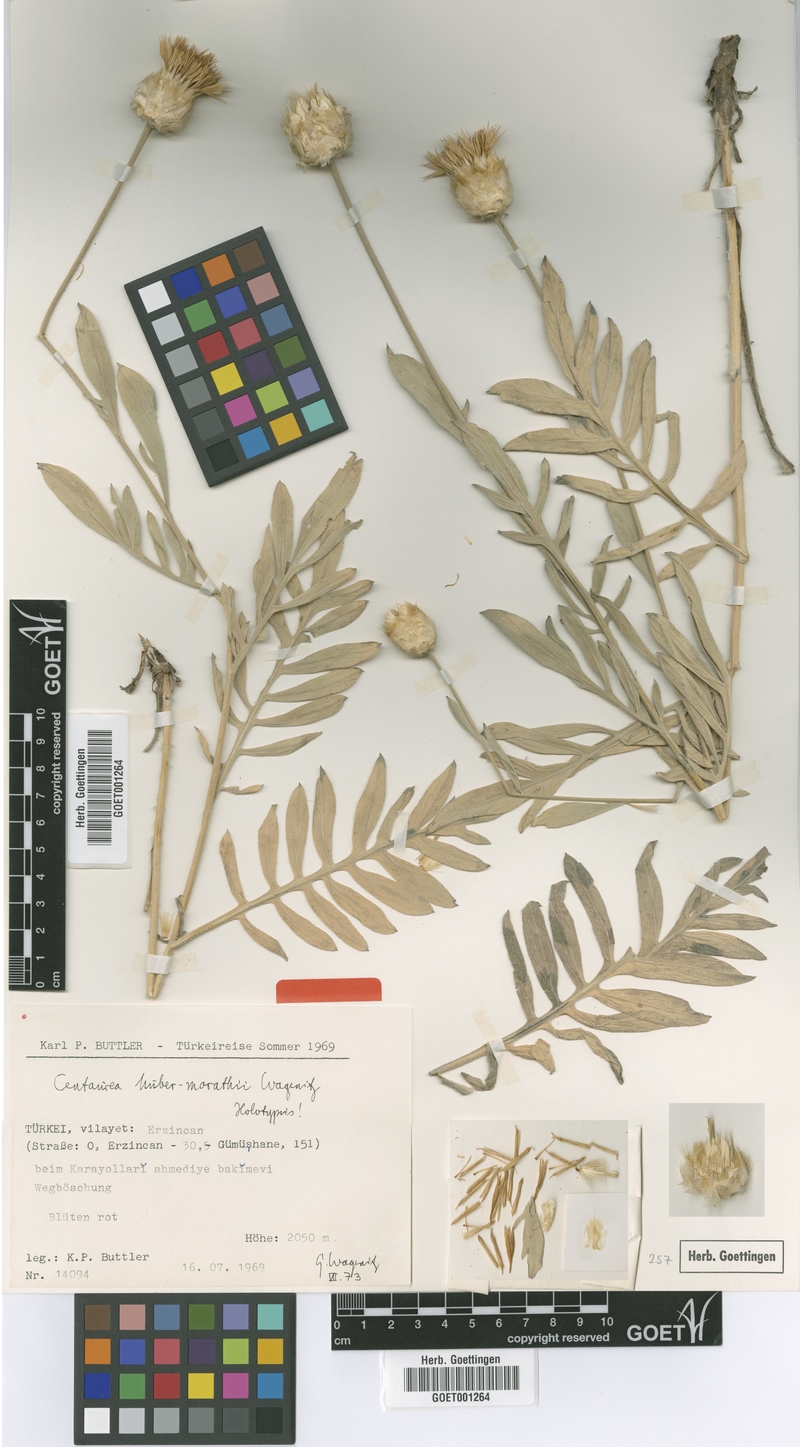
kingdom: Plantae
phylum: Tracheophyta
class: Magnoliopsida
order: Asterales
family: Asteraceae
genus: Psephellus
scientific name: Psephellus huber-morathii
